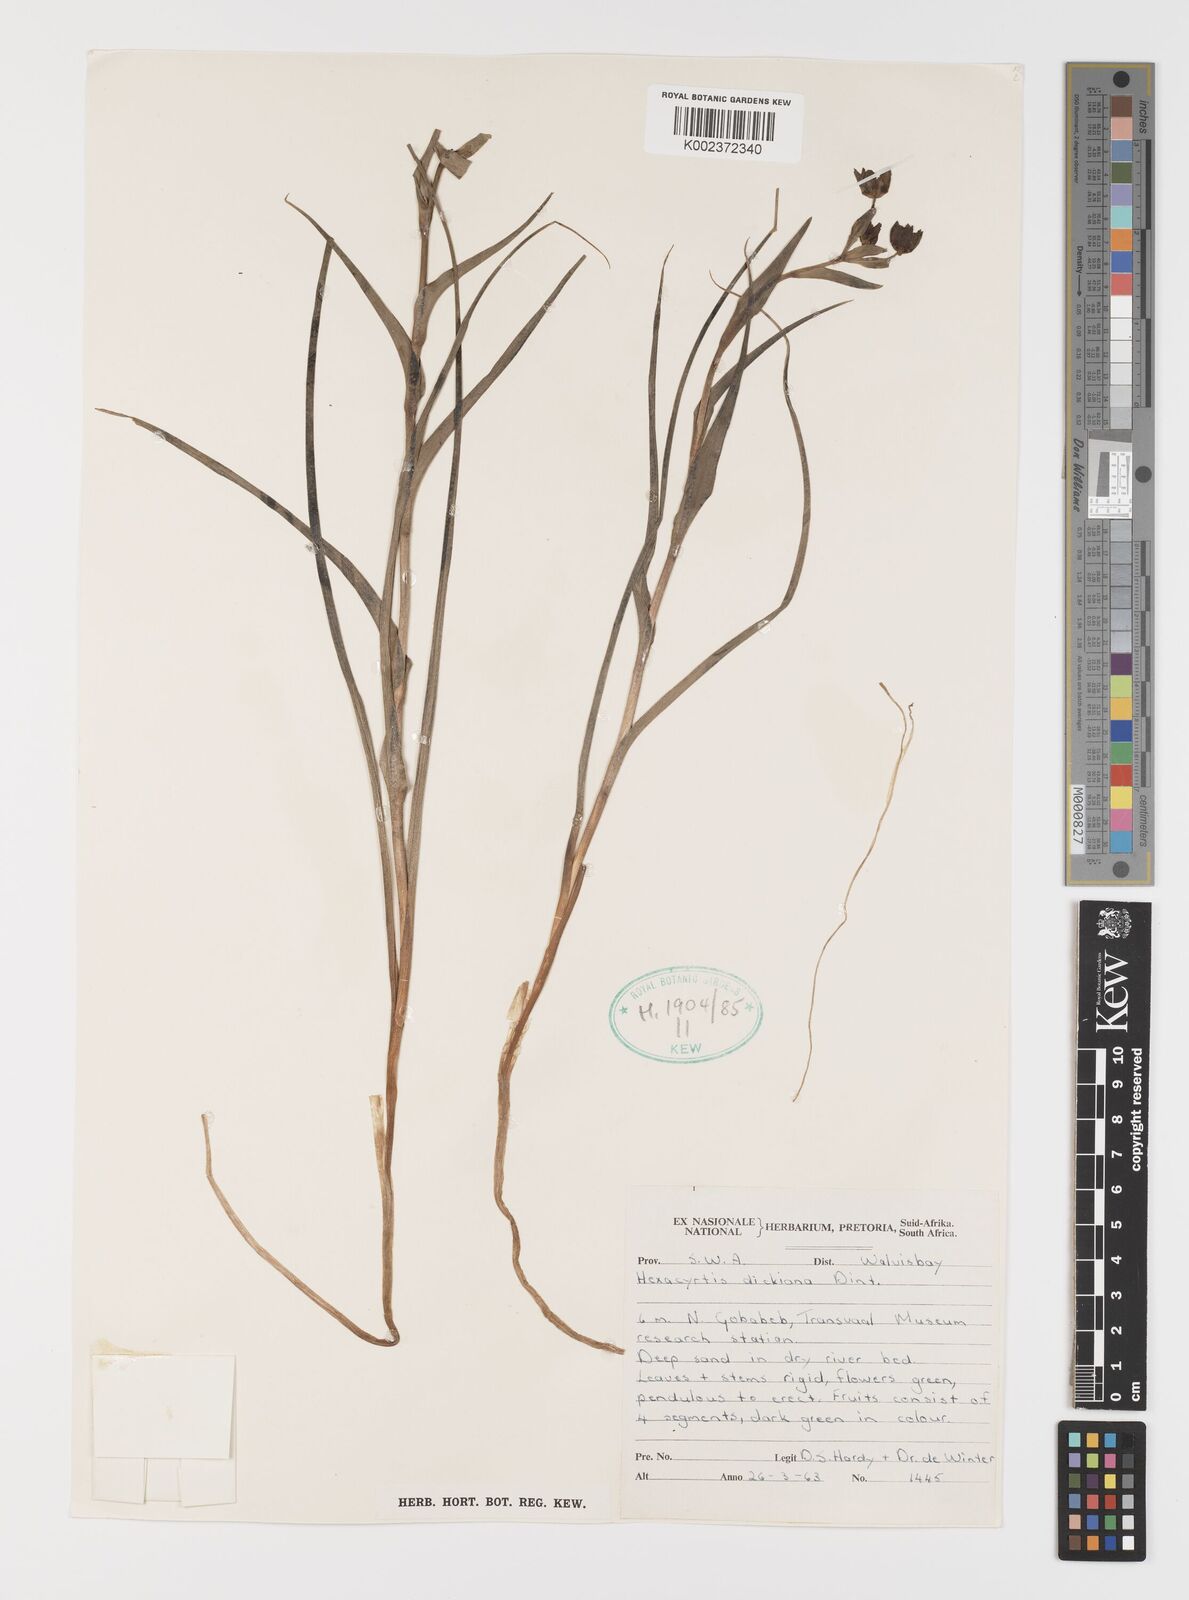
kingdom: Plantae
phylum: Tracheophyta
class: Liliopsida
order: Liliales
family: Colchicaceae
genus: Hexacyrtis
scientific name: Hexacyrtis dickiana
